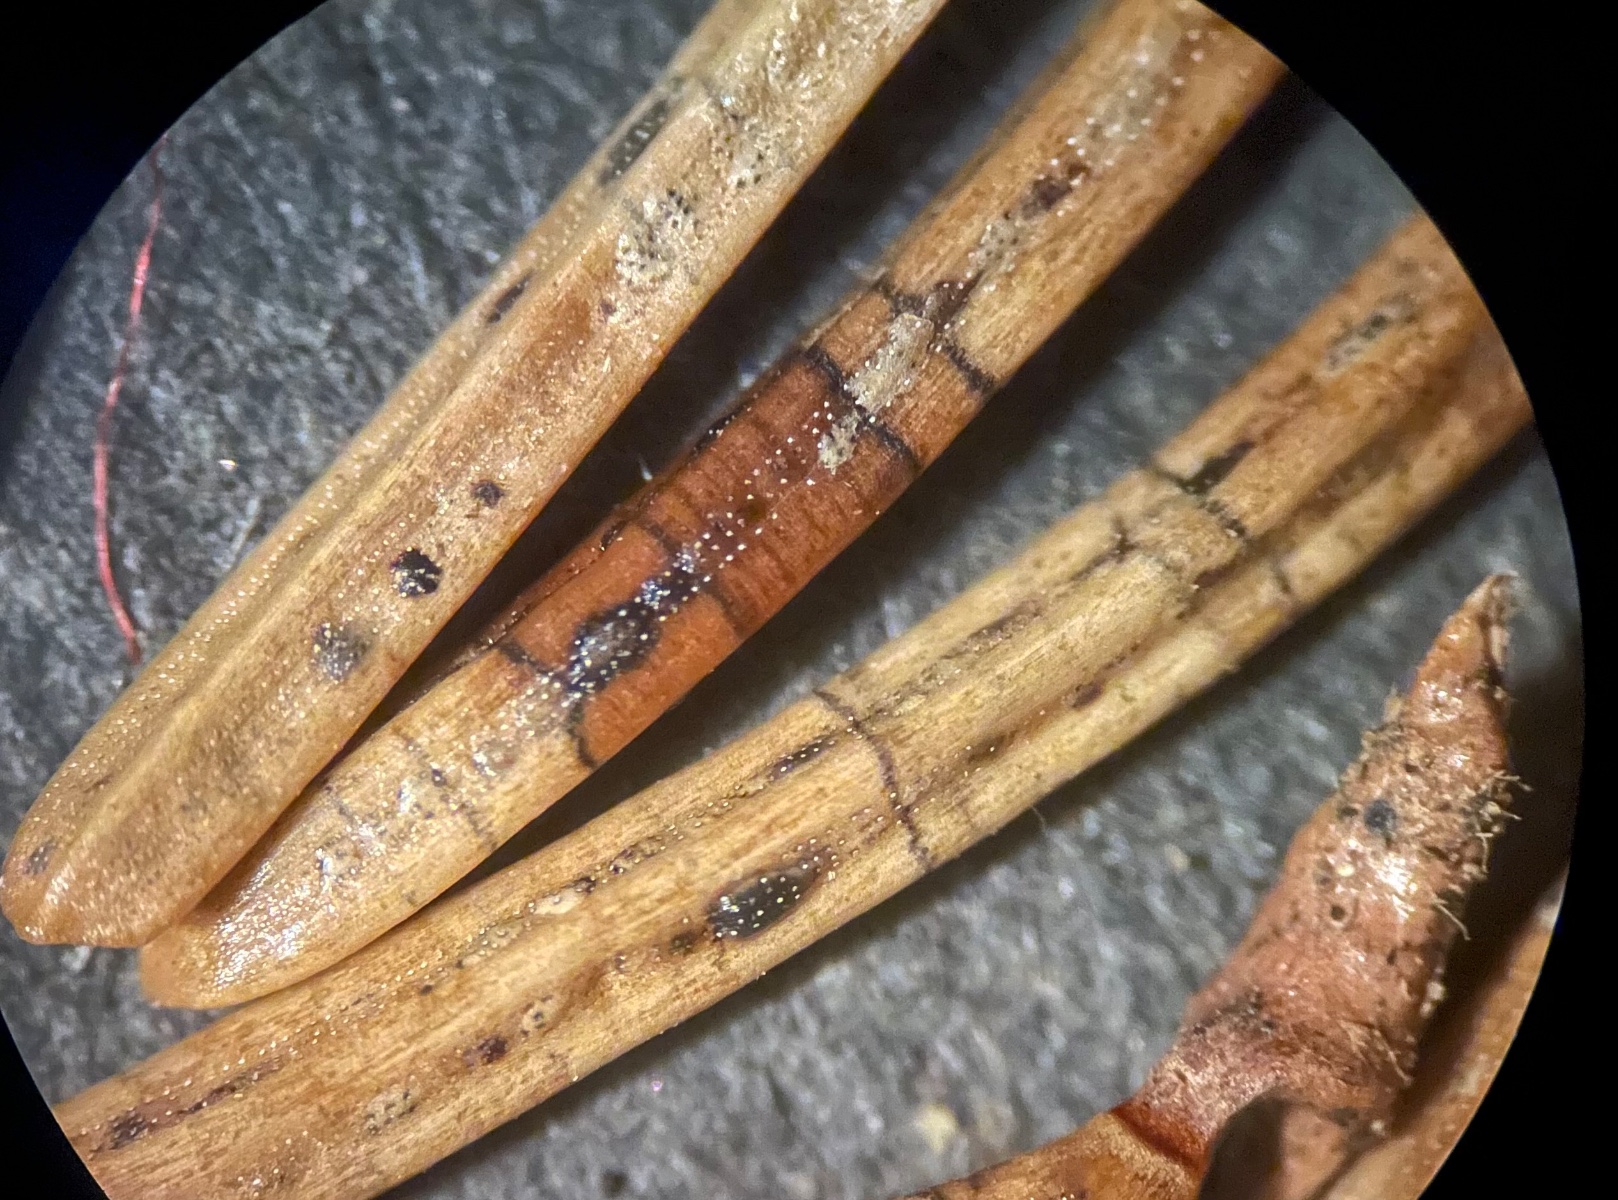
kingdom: Fungi
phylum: Ascomycota
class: Leotiomycetes
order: Rhytismatales
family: Rhytismataceae
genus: Lophodermium
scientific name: Lophodermium piceae
